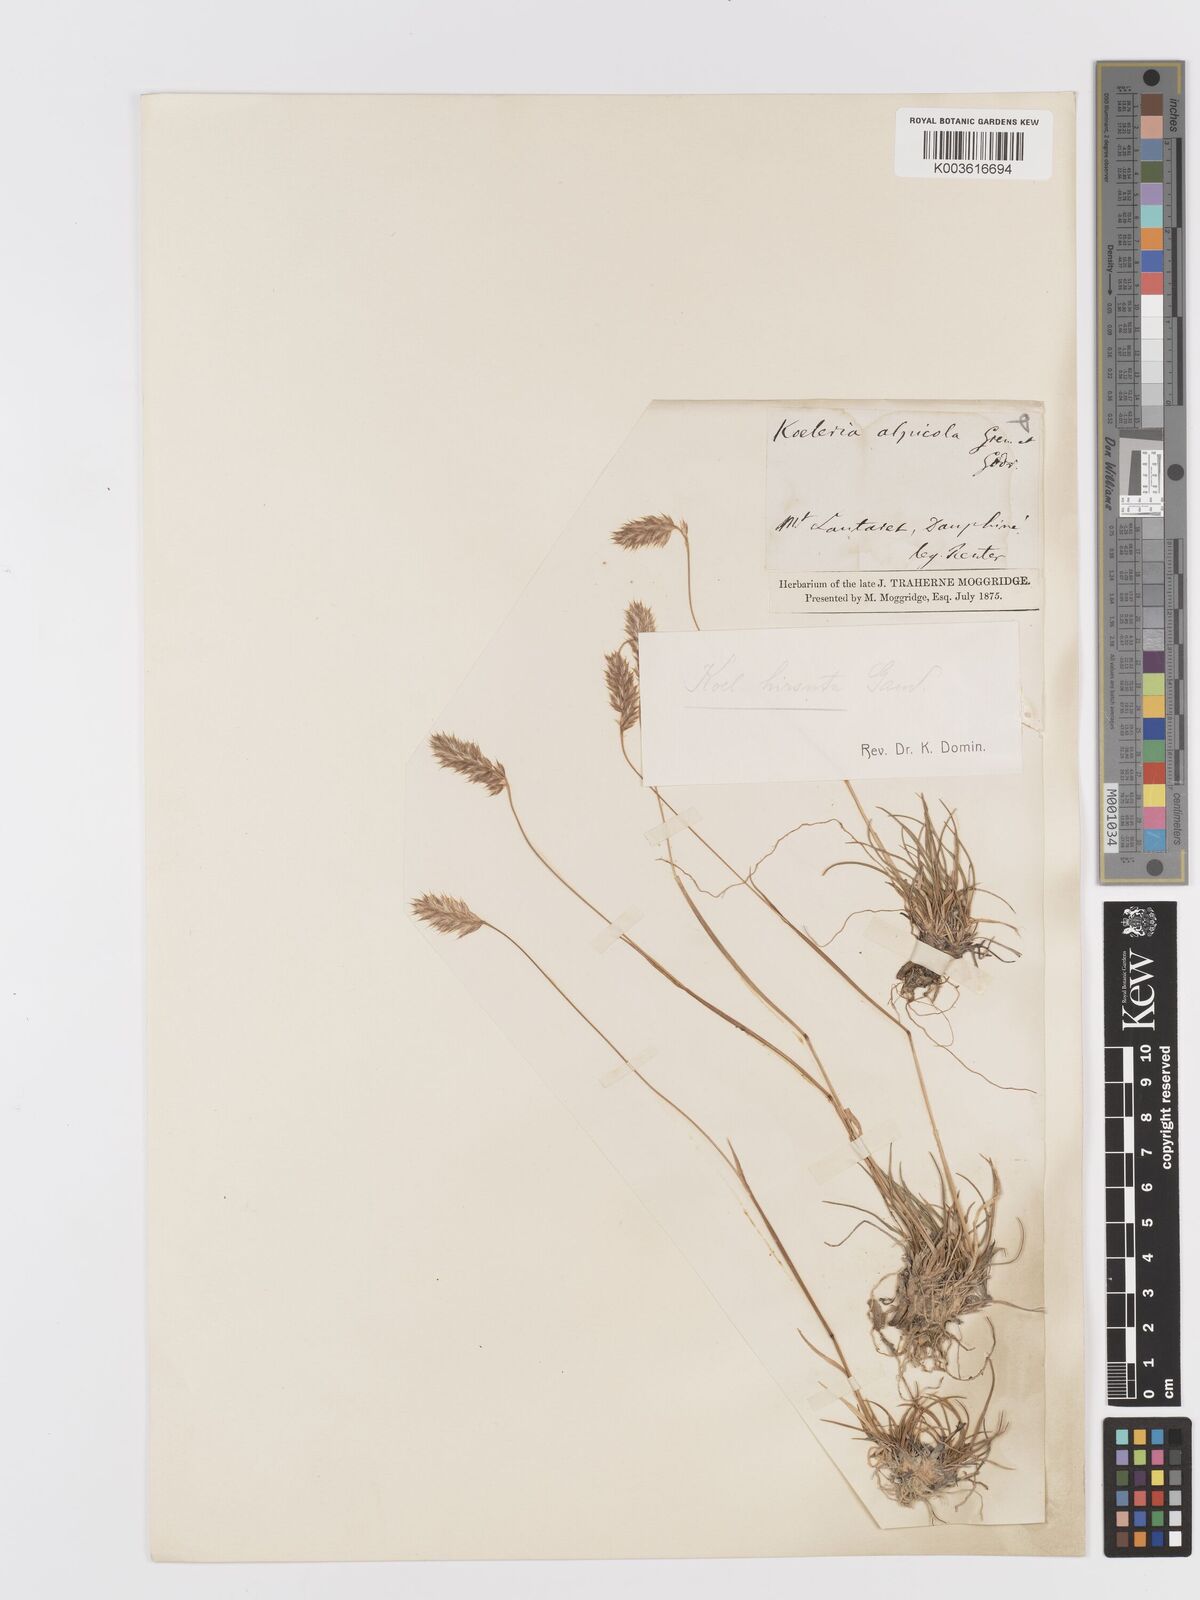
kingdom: Plantae
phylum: Tracheophyta
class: Liliopsida
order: Poales
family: Poaceae
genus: Koeleria
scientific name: Koeleria hirsuta
